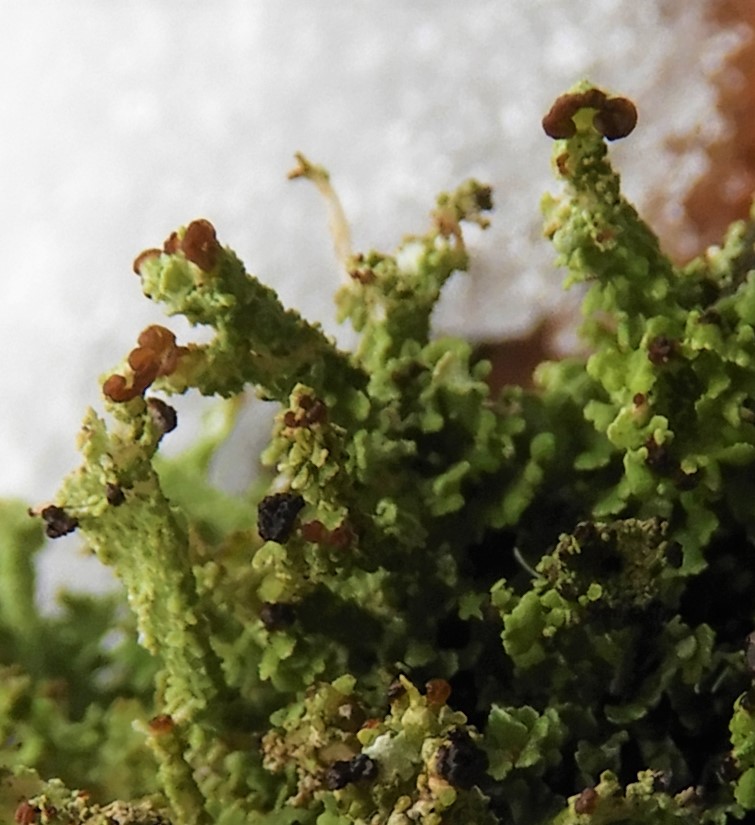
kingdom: Fungi
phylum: Ascomycota
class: Lecanoromycetes
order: Lecanorales
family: Cladoniaceae
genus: Cladonia
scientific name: Cladonia ramulosa
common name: kliddet bægerlav
